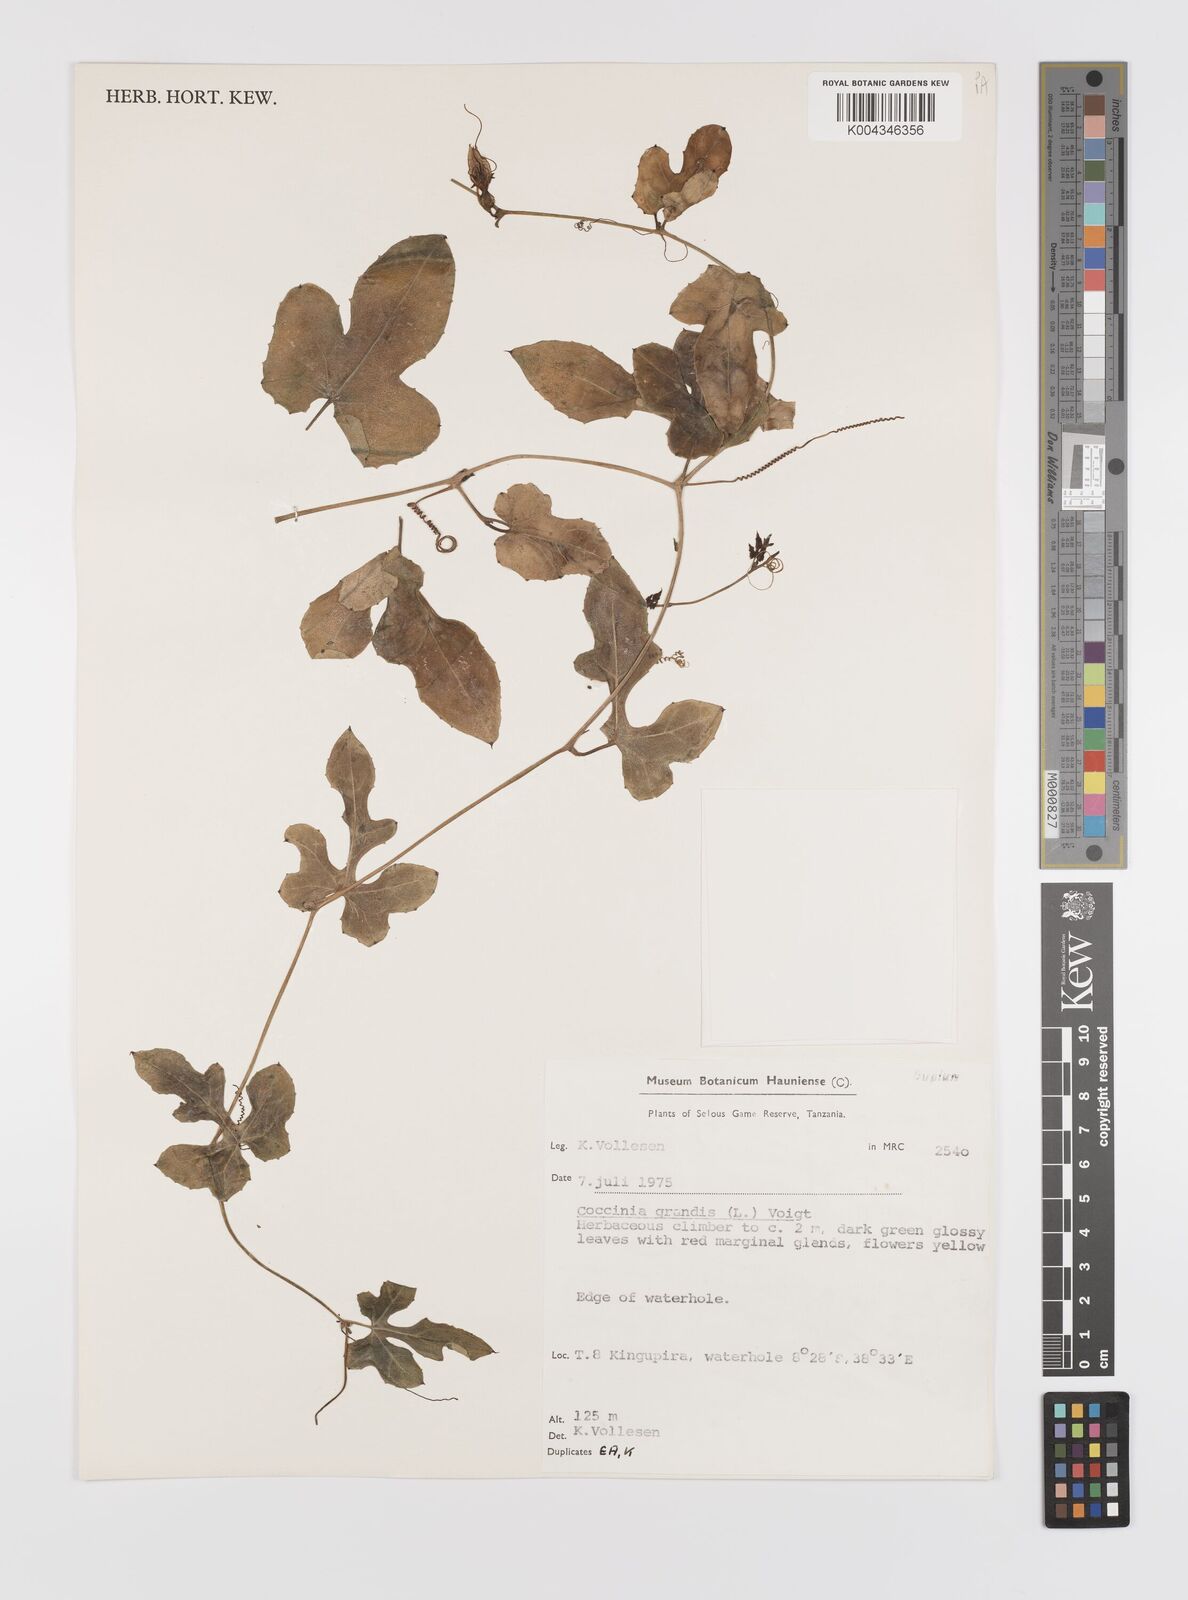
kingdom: Plantae
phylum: Tracheophyta
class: Magnoliopsida
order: Cucurbitales
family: Cucurbitaceae
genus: Coccinia
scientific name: Coccinia grandis
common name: Ivy gourd
